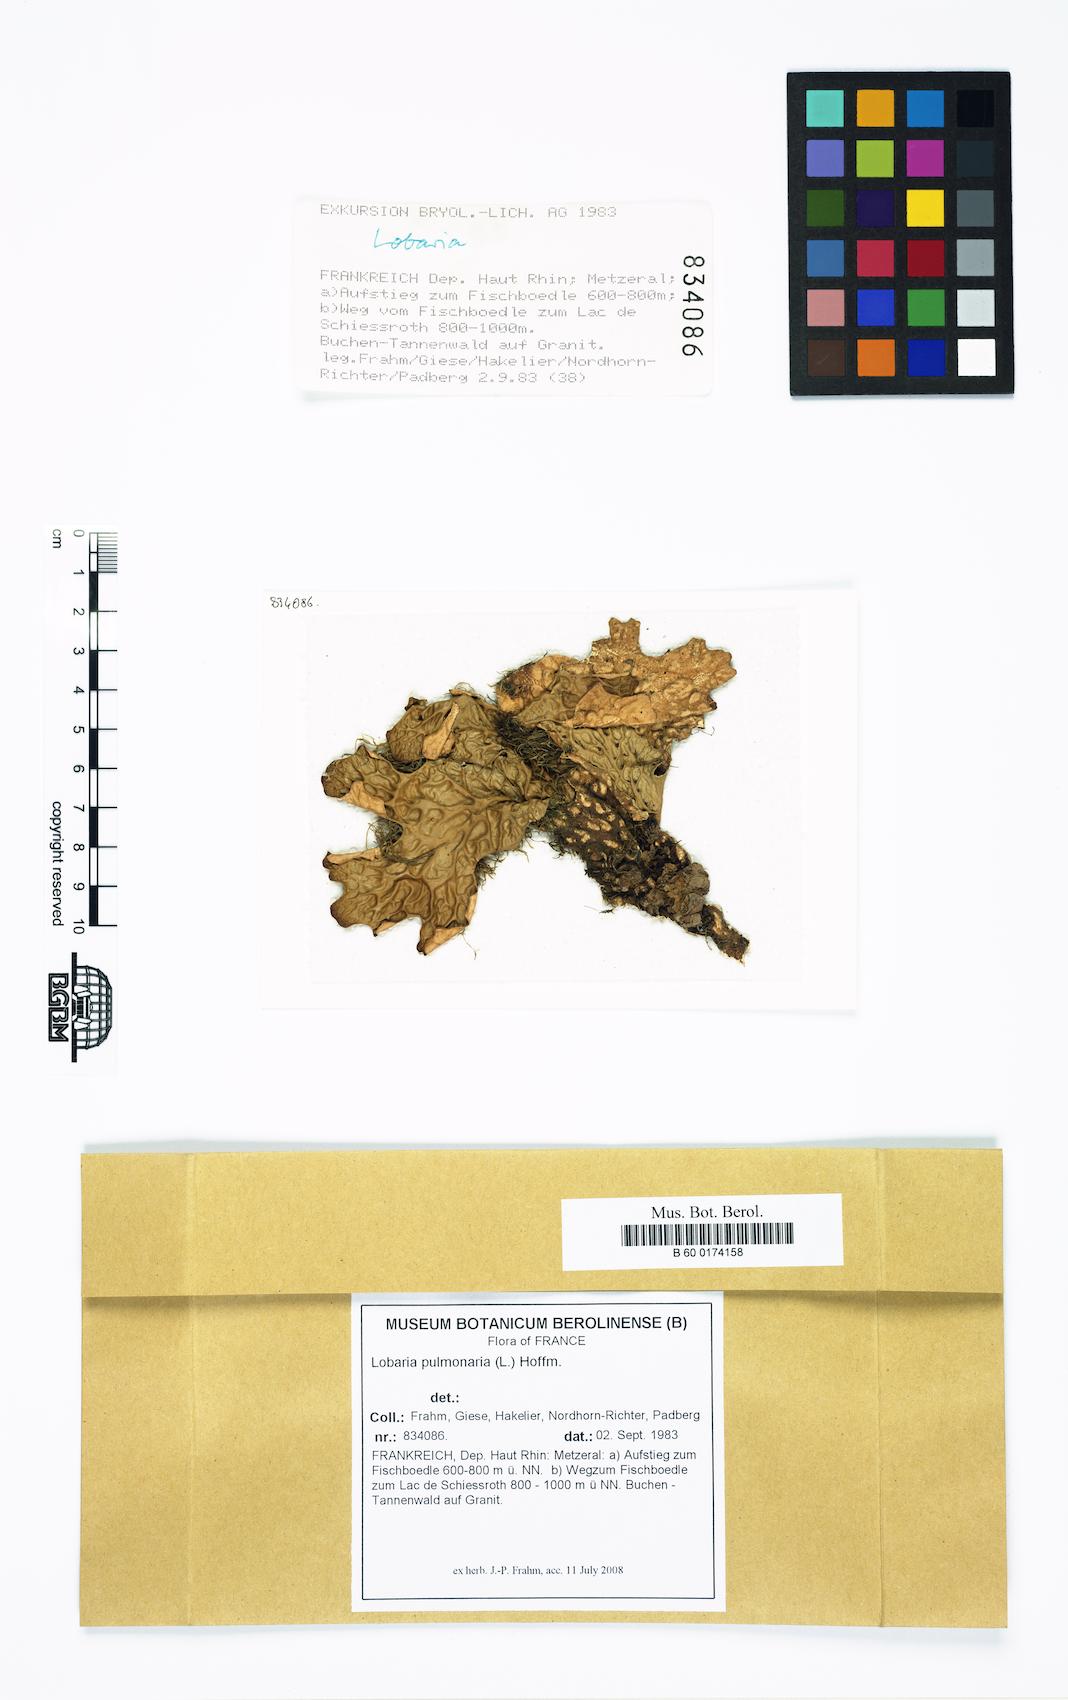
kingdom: Fungi
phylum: Ascomycota
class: Lecanoromycetes
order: Peltigerales
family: Lobariaceae
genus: Lobaria
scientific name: Lobaria pulmonaria
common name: Lungwort
